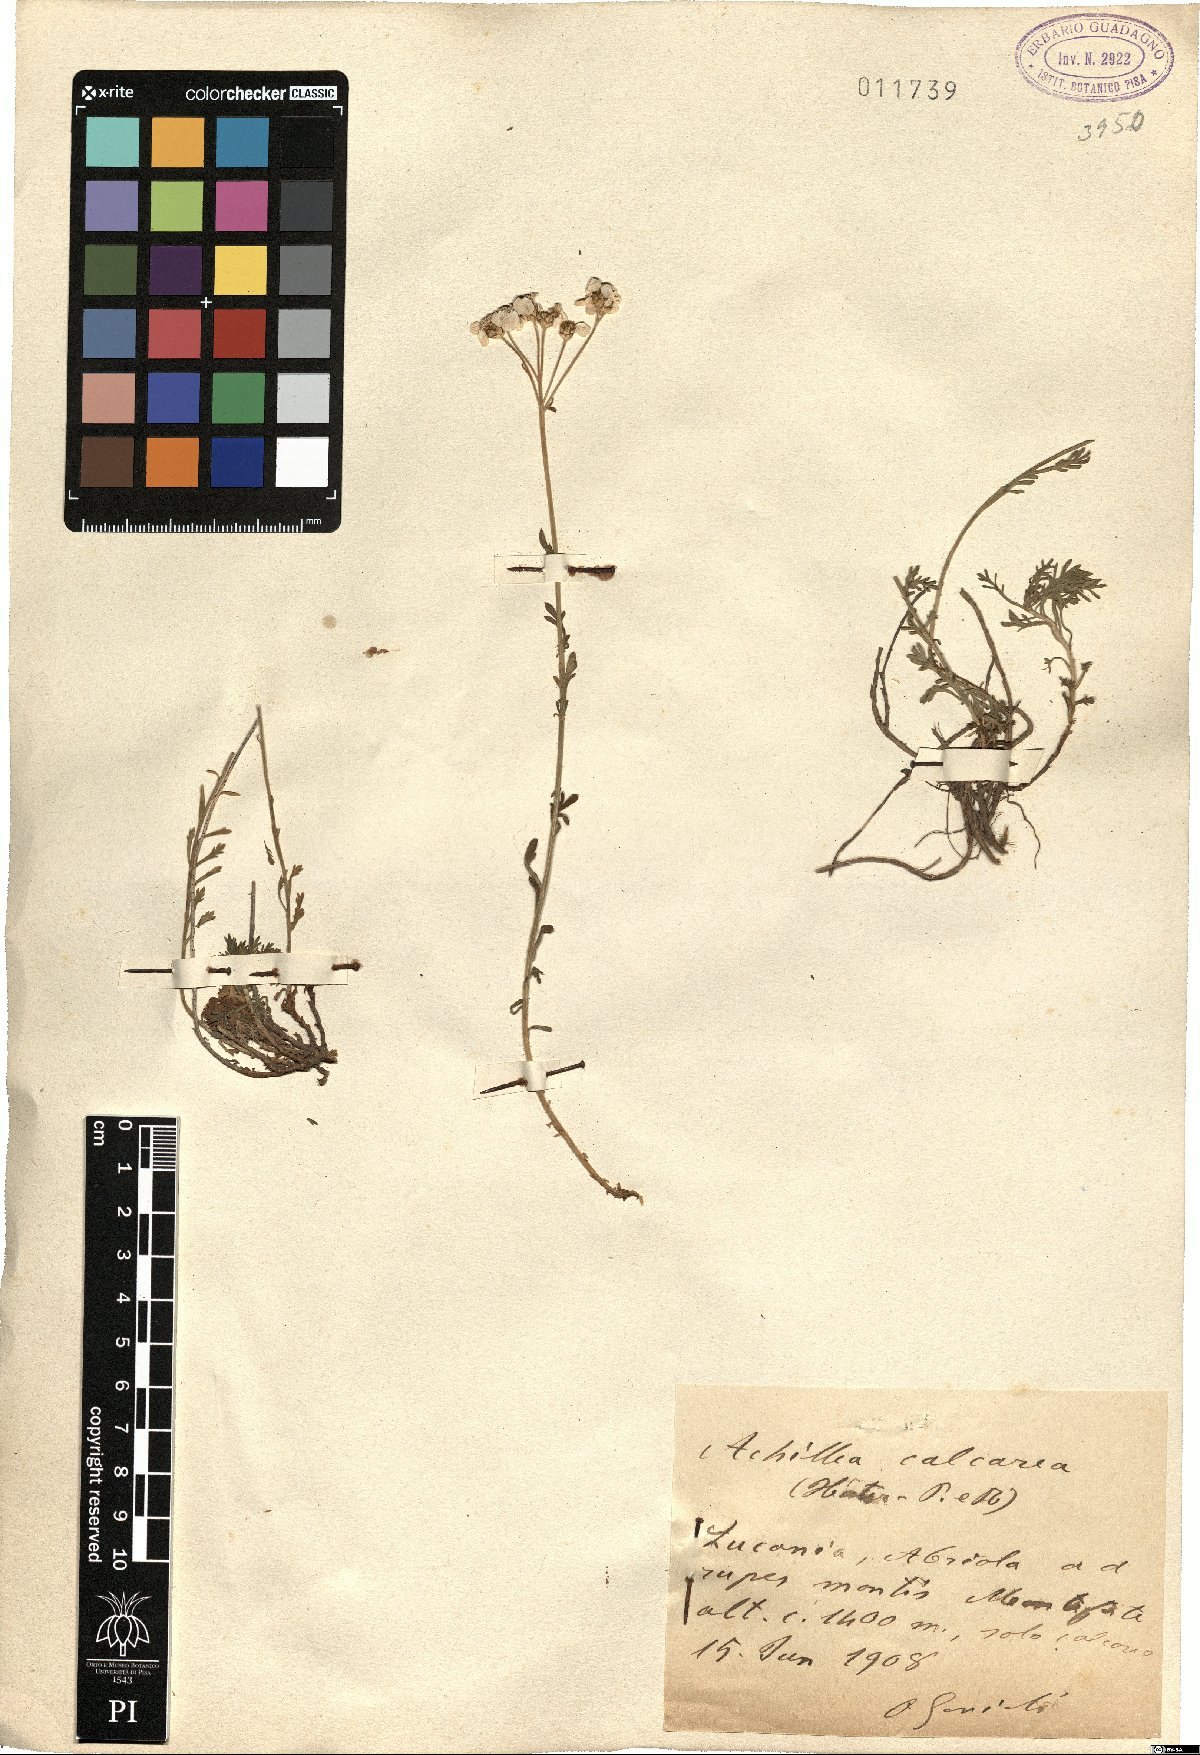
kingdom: Plantae
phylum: Tracheophyta
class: Magnoliopsida
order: Asterales
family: Asteraceae
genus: Achillea
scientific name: Achillea rupestris
